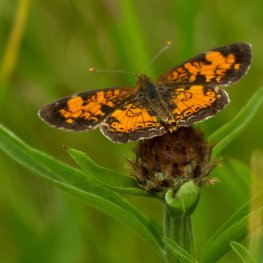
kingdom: Animalia
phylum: Arthropoda
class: Insecta
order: Lepidoptera
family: Nymphalidae
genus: Phyciodes
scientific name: Phyciodes tharos
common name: Northern Crescent
